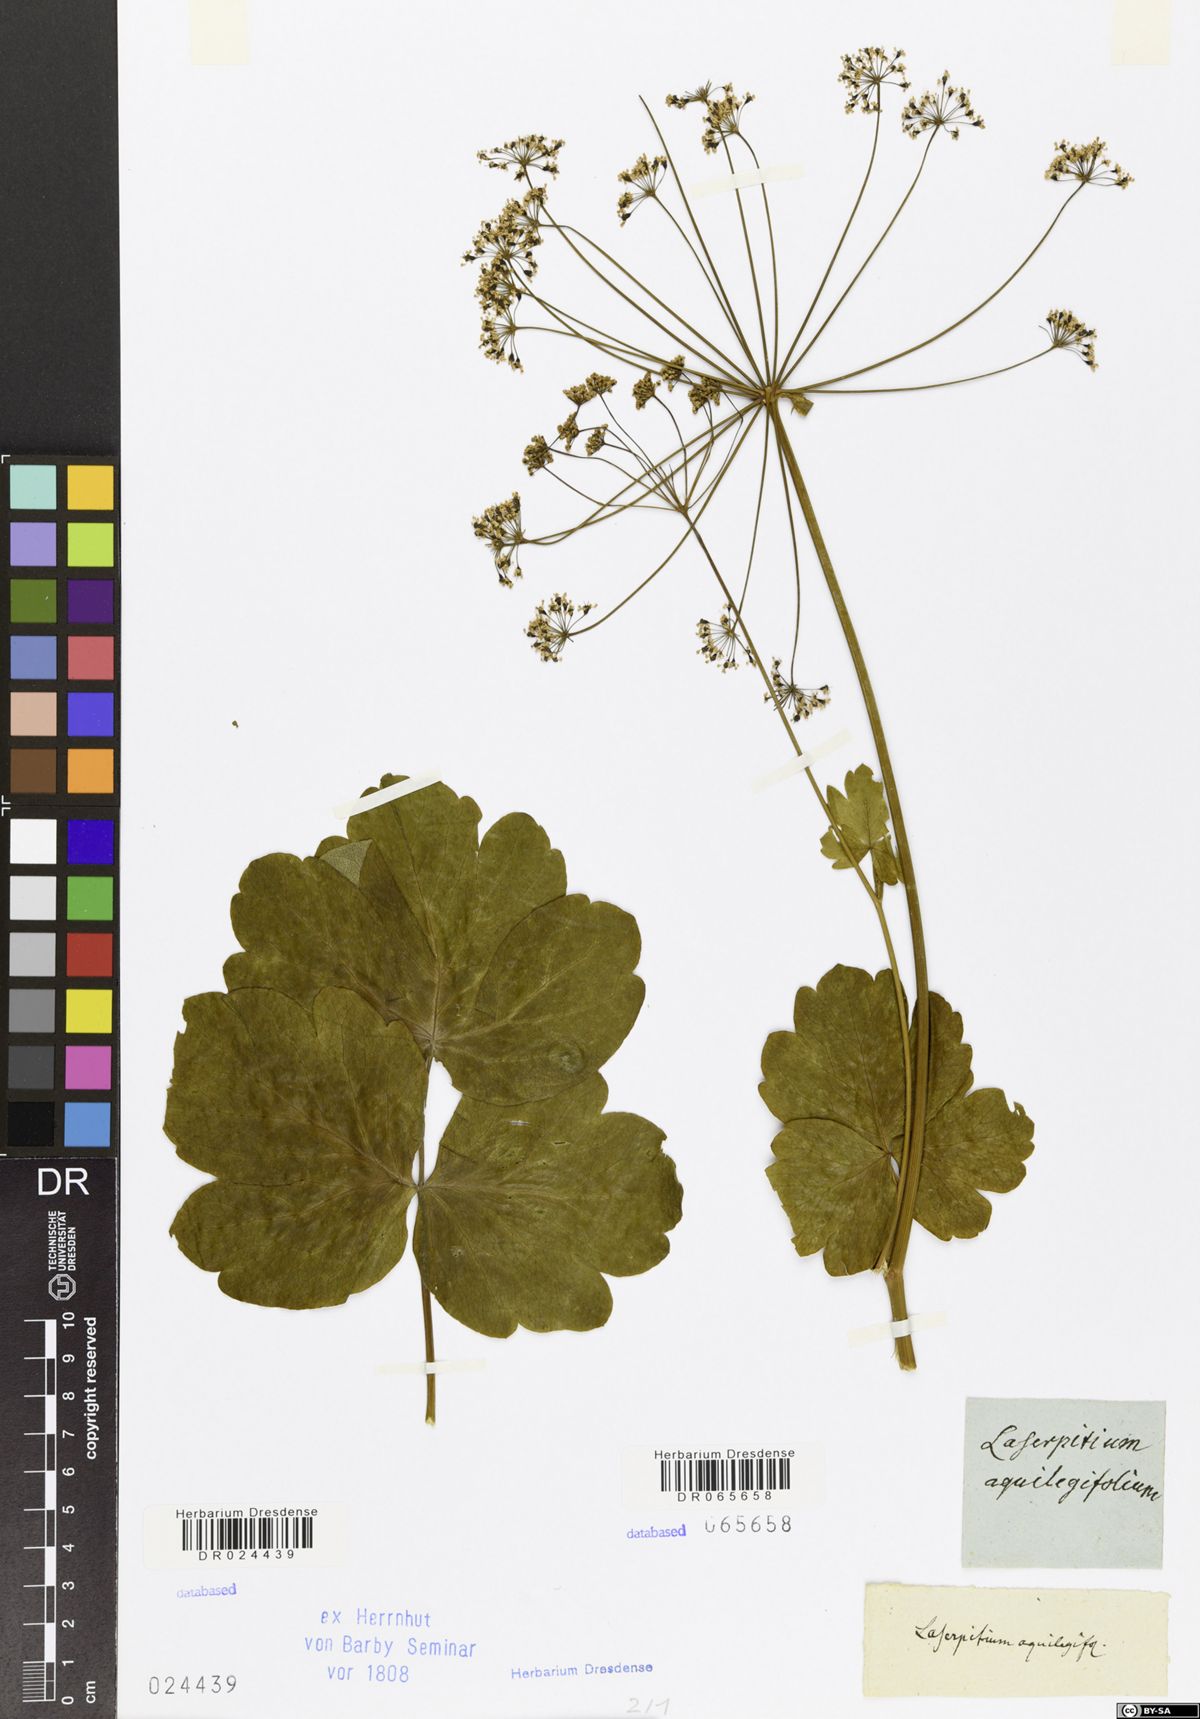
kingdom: Plantae
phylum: Tracheophyta
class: Magnoliopsida
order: Apiales
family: Apiaceae
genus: Laserpitium
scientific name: Laserpitium latifolium
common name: Broadleaf sermountain
